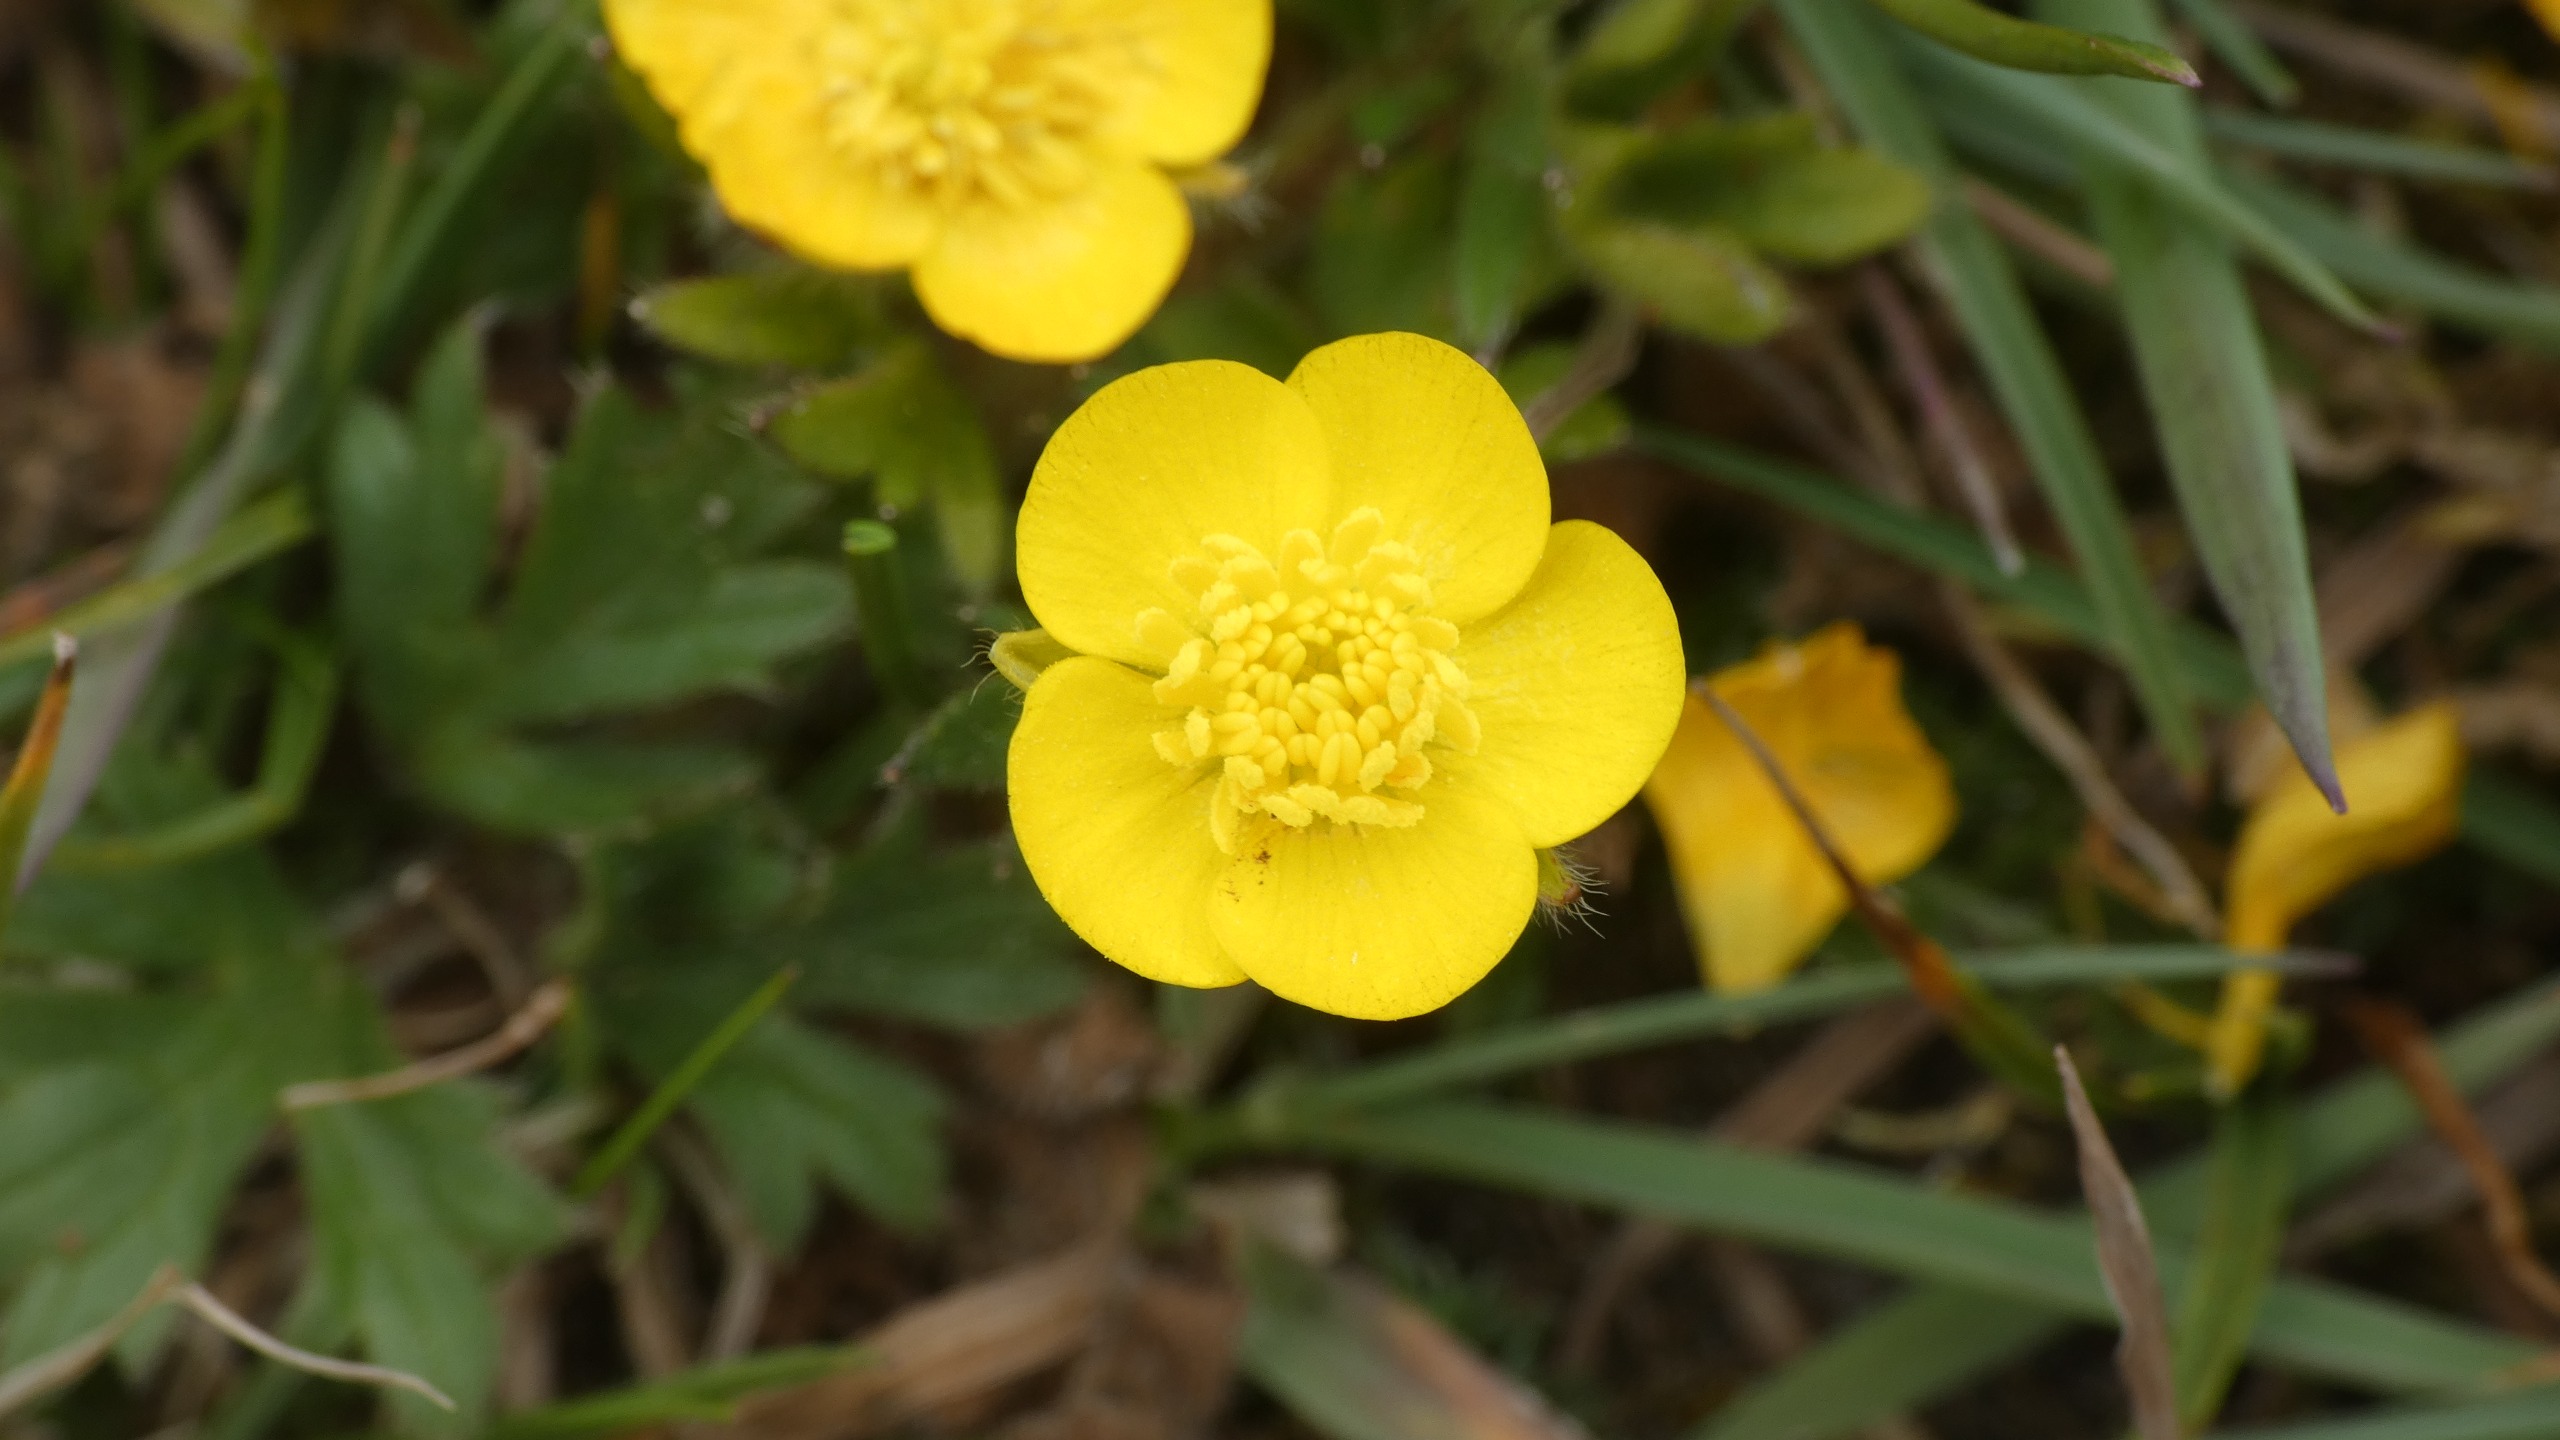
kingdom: Plantae
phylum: Tracheophyta
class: Magnoliopsida
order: Ranunculales
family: Ranunculaceae
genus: Ranunculus
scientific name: Ranunculus bulbosus
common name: Knold-ranunkel
